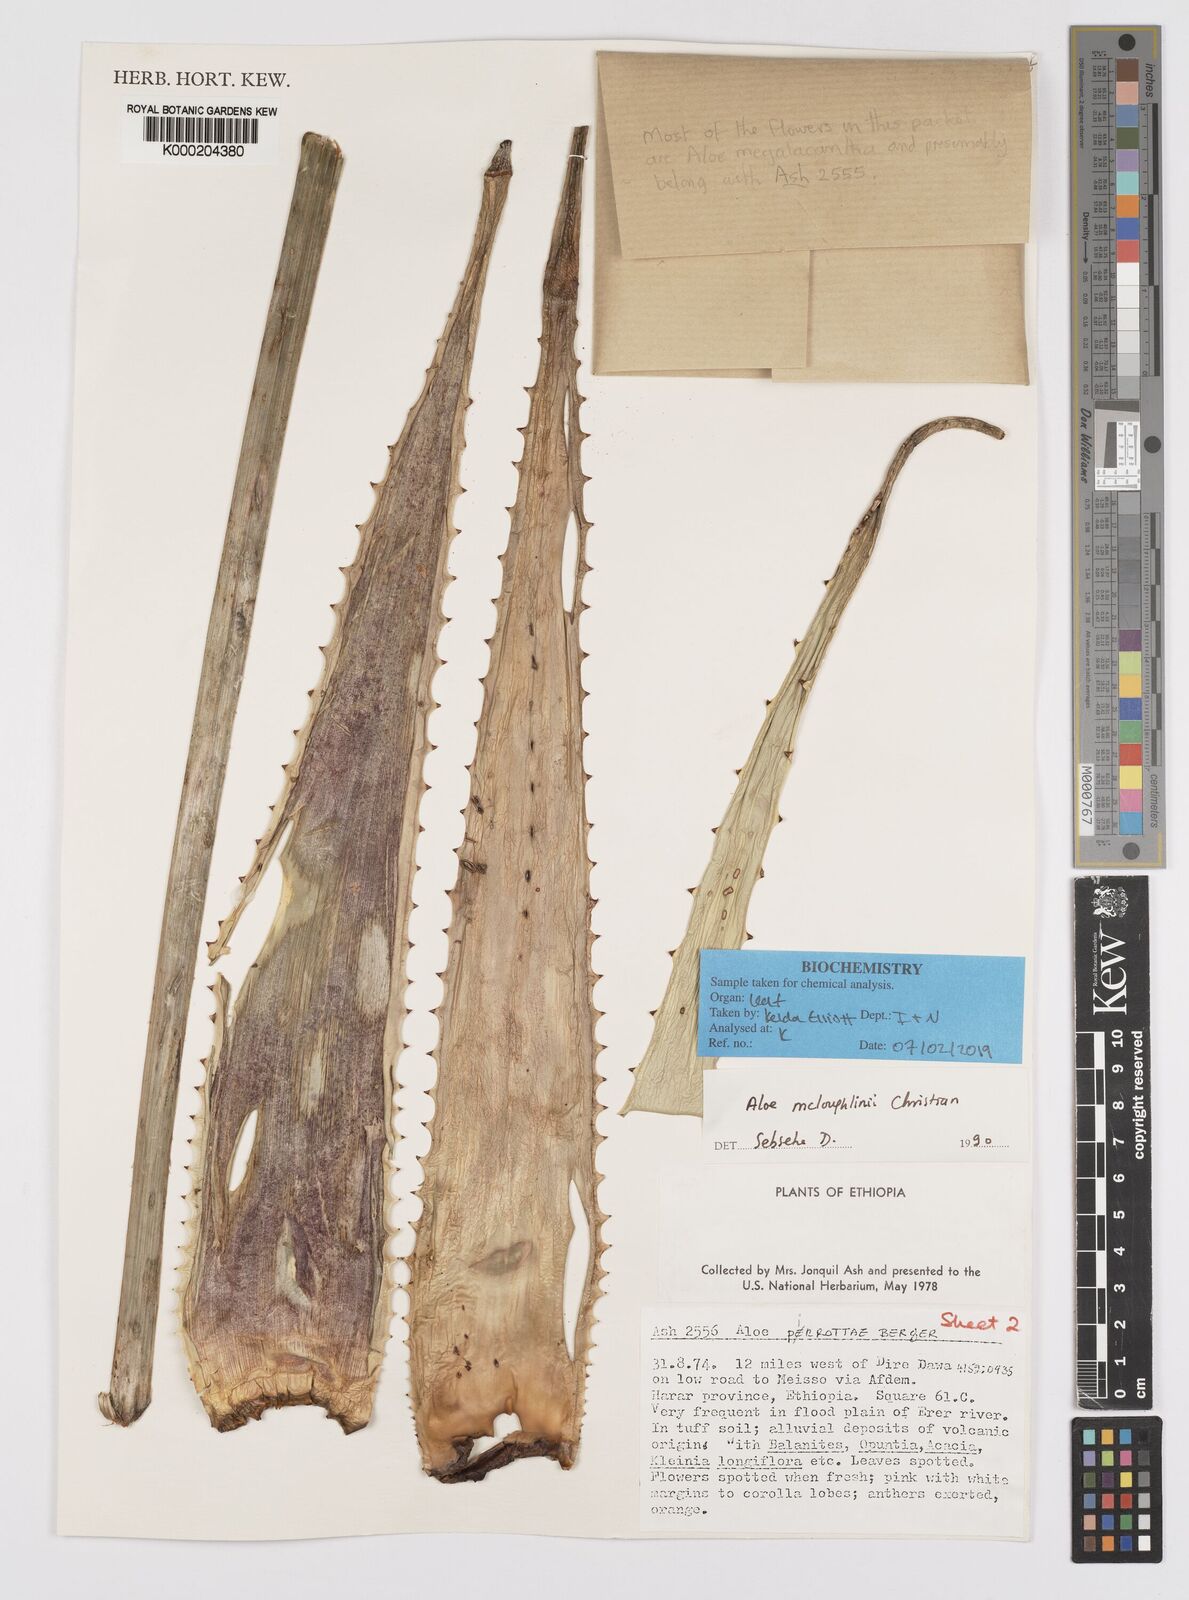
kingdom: Plantae
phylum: Tracheophyta
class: Liliopsida
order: Asparagales
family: Asphodelaceae
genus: Aloe
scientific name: Aloe
